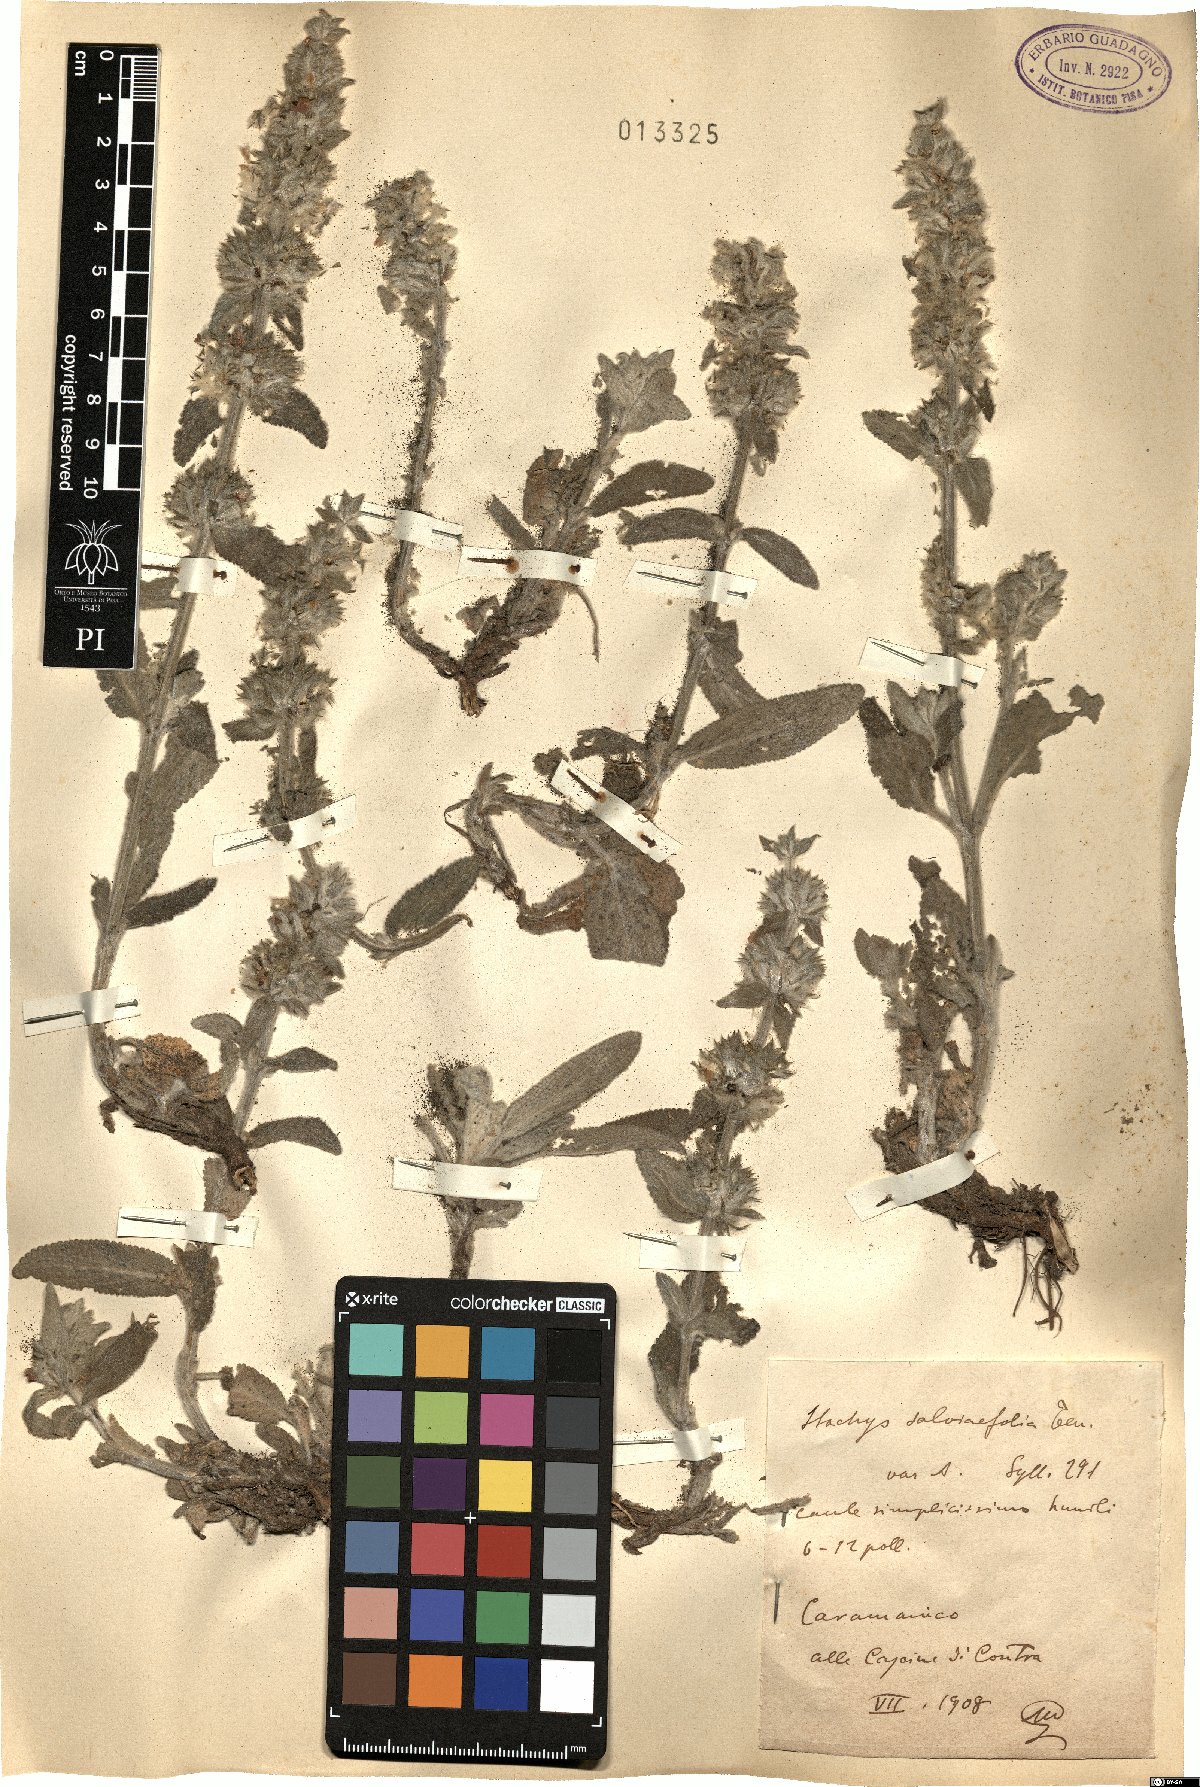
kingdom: Plantae
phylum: Tracheophyta
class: Magnoliopsida
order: Lamiales
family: Lamiaceae
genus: Stachys
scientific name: Stachys cretica
